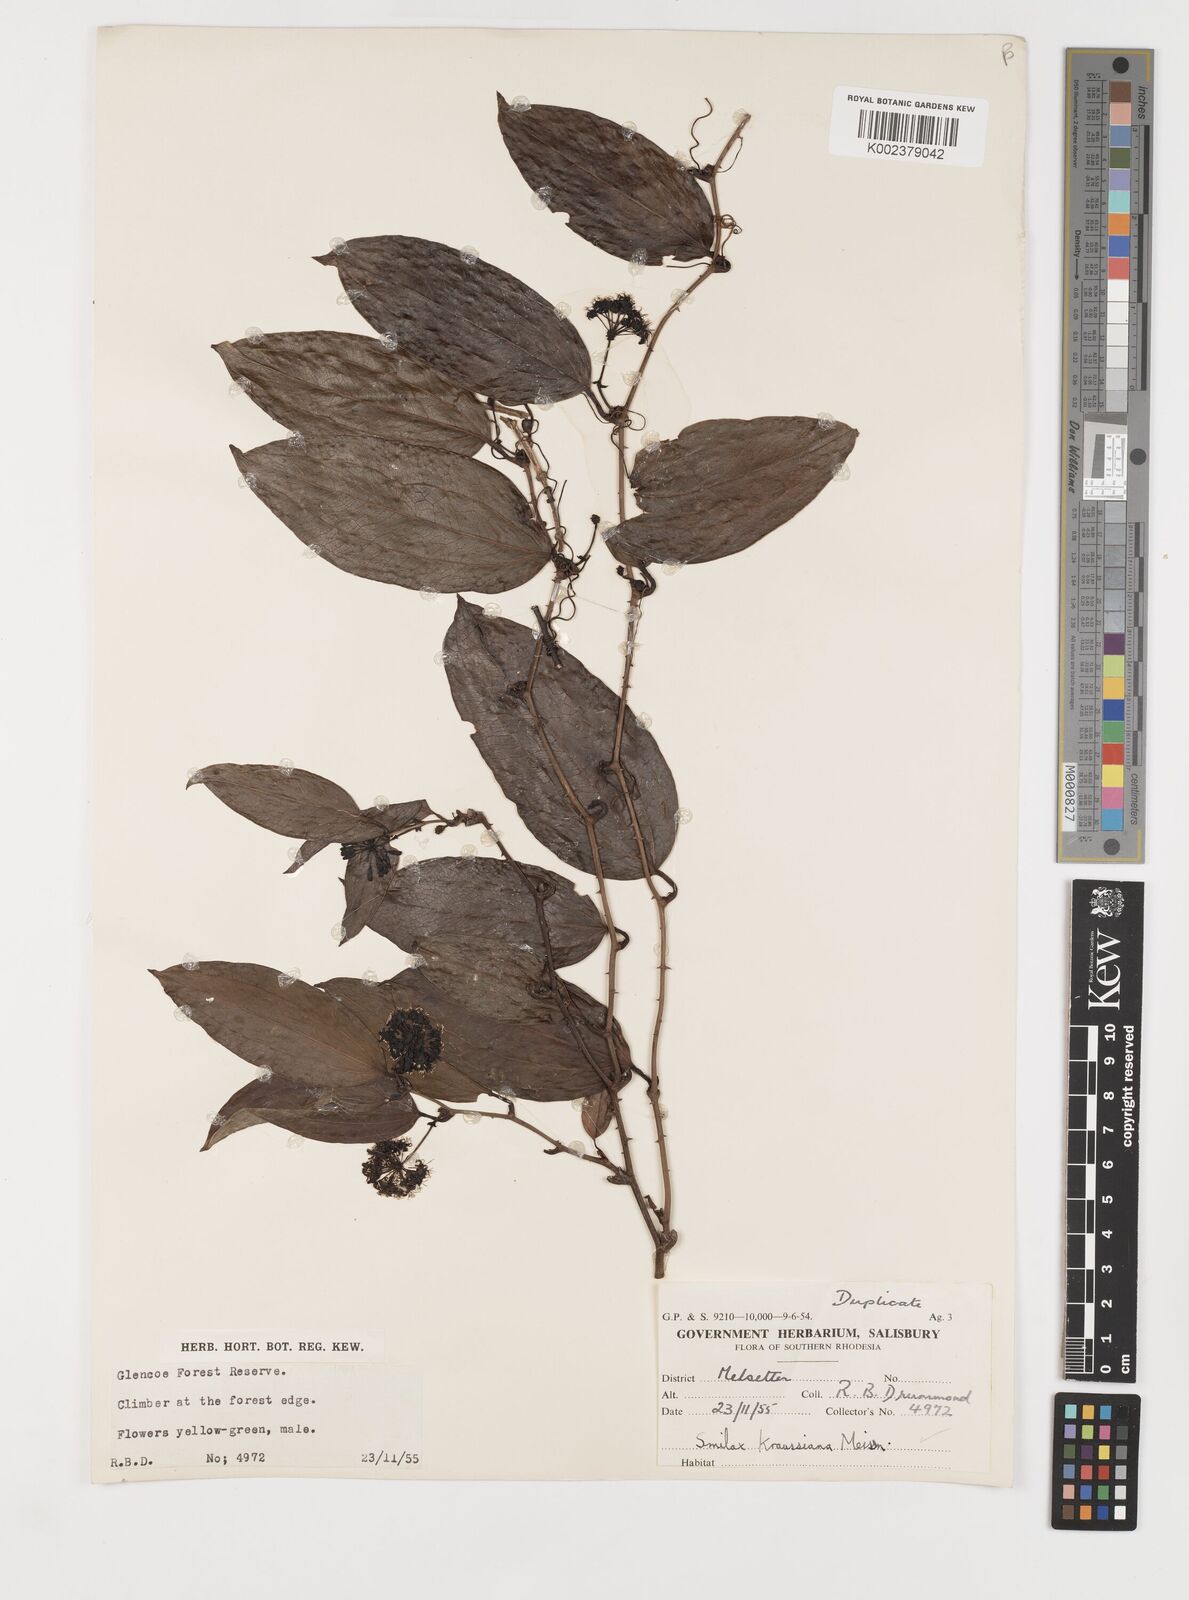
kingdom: Plantae
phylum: Tracheophyta
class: Liliopsida
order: Liliales
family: Smilacaceae
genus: Smilax
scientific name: Smilax anceps
